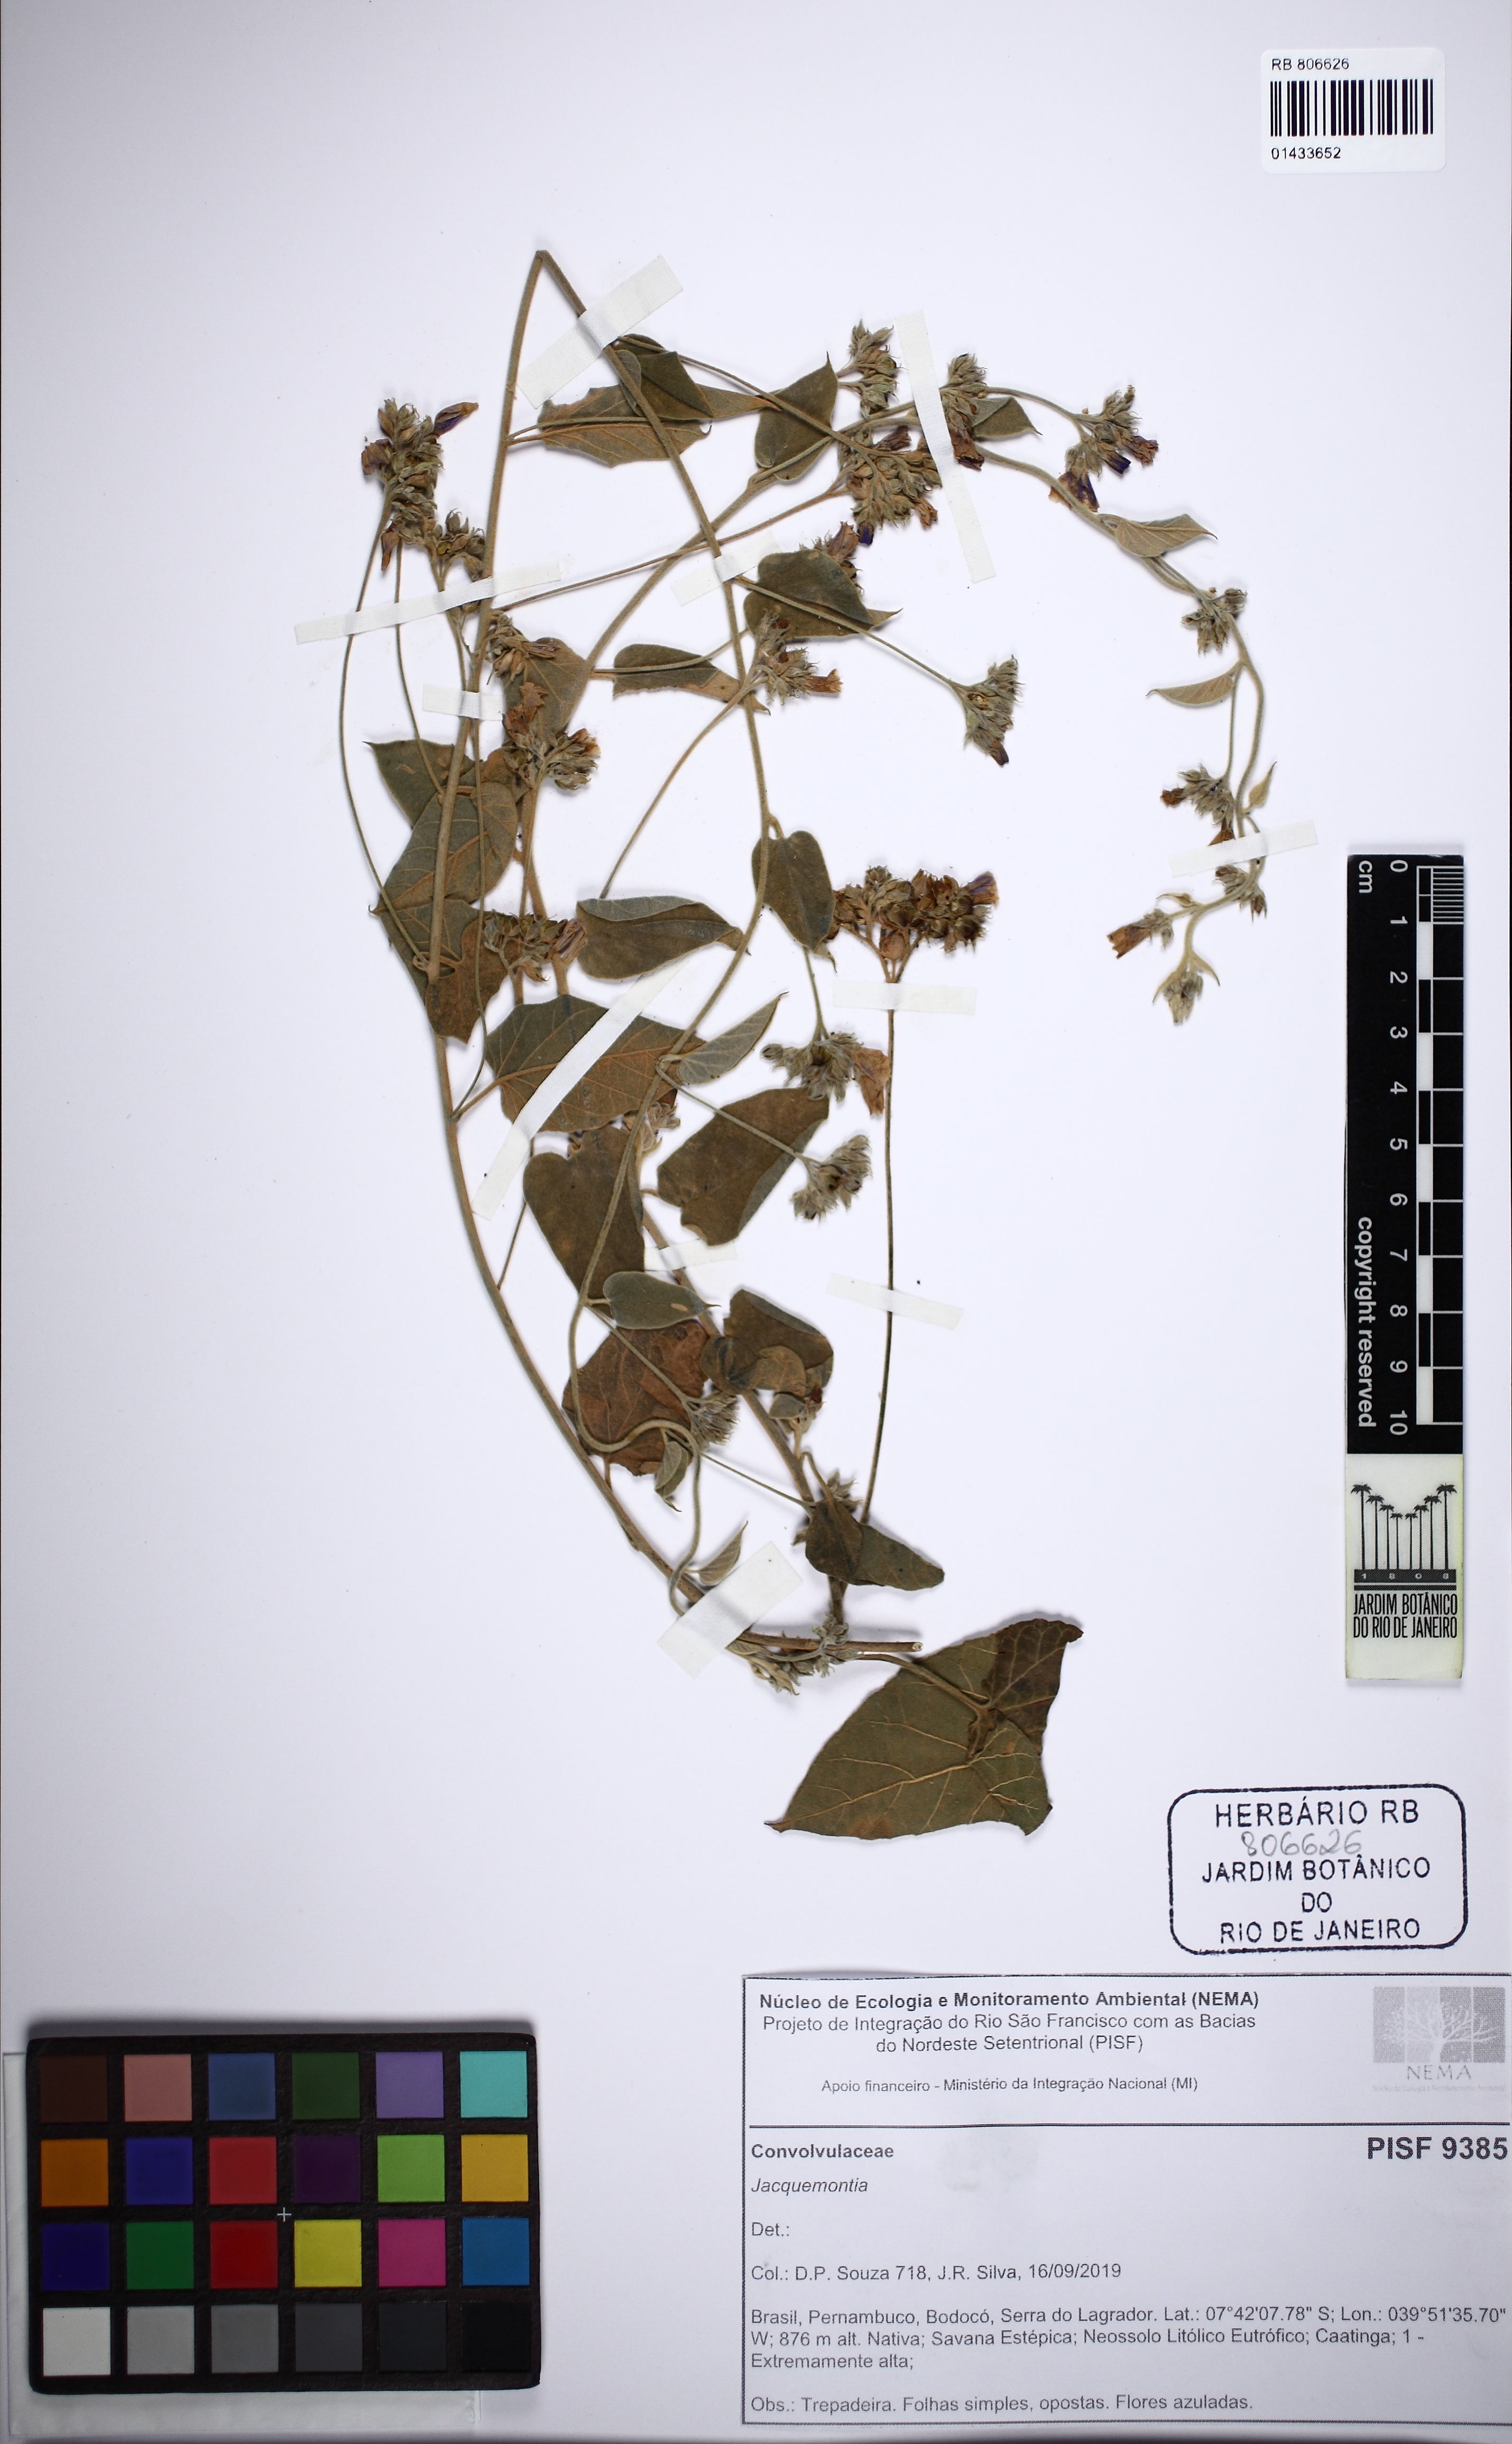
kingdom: Plantae
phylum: Tracheophyta
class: Magnoliopsida
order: Solanales
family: Convolvulaceae
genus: Jacquemontia
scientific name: Jacquemontia
